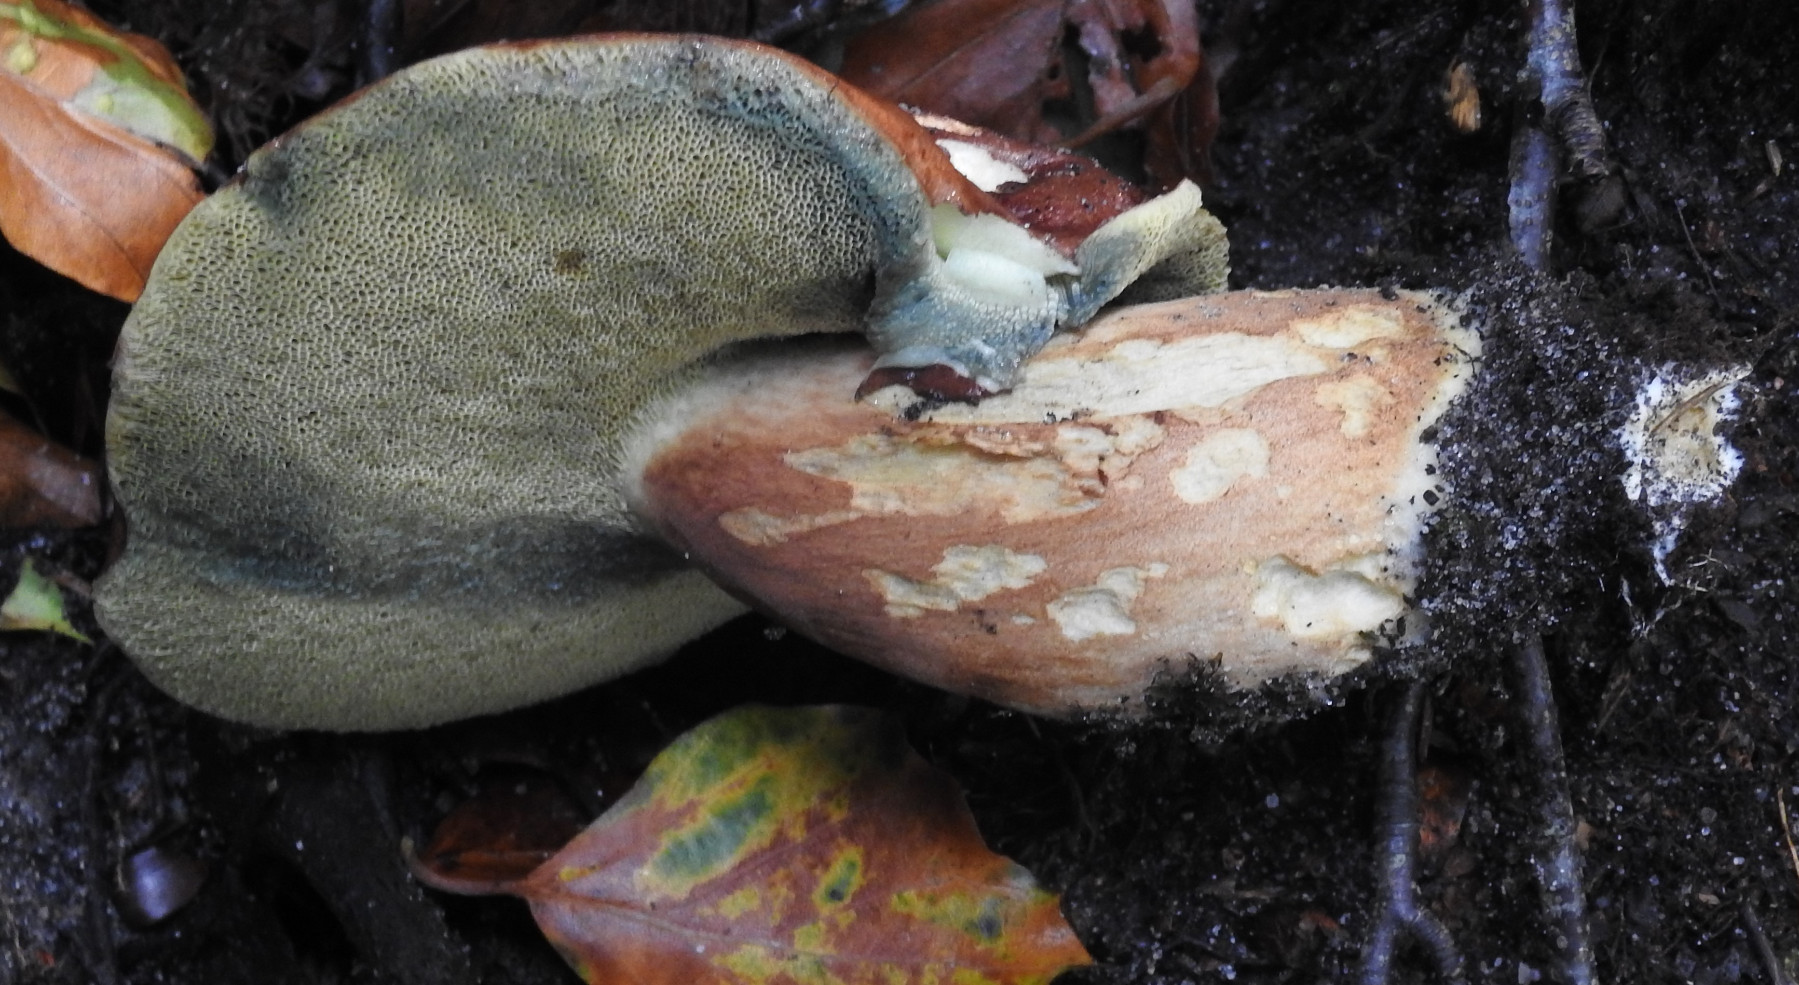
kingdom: Fungi
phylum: Basidiomycota
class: Agaricomycetes
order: Boletales
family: Boletaceae
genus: Imleria
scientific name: Imleria badia
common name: brunstokket rørhat
